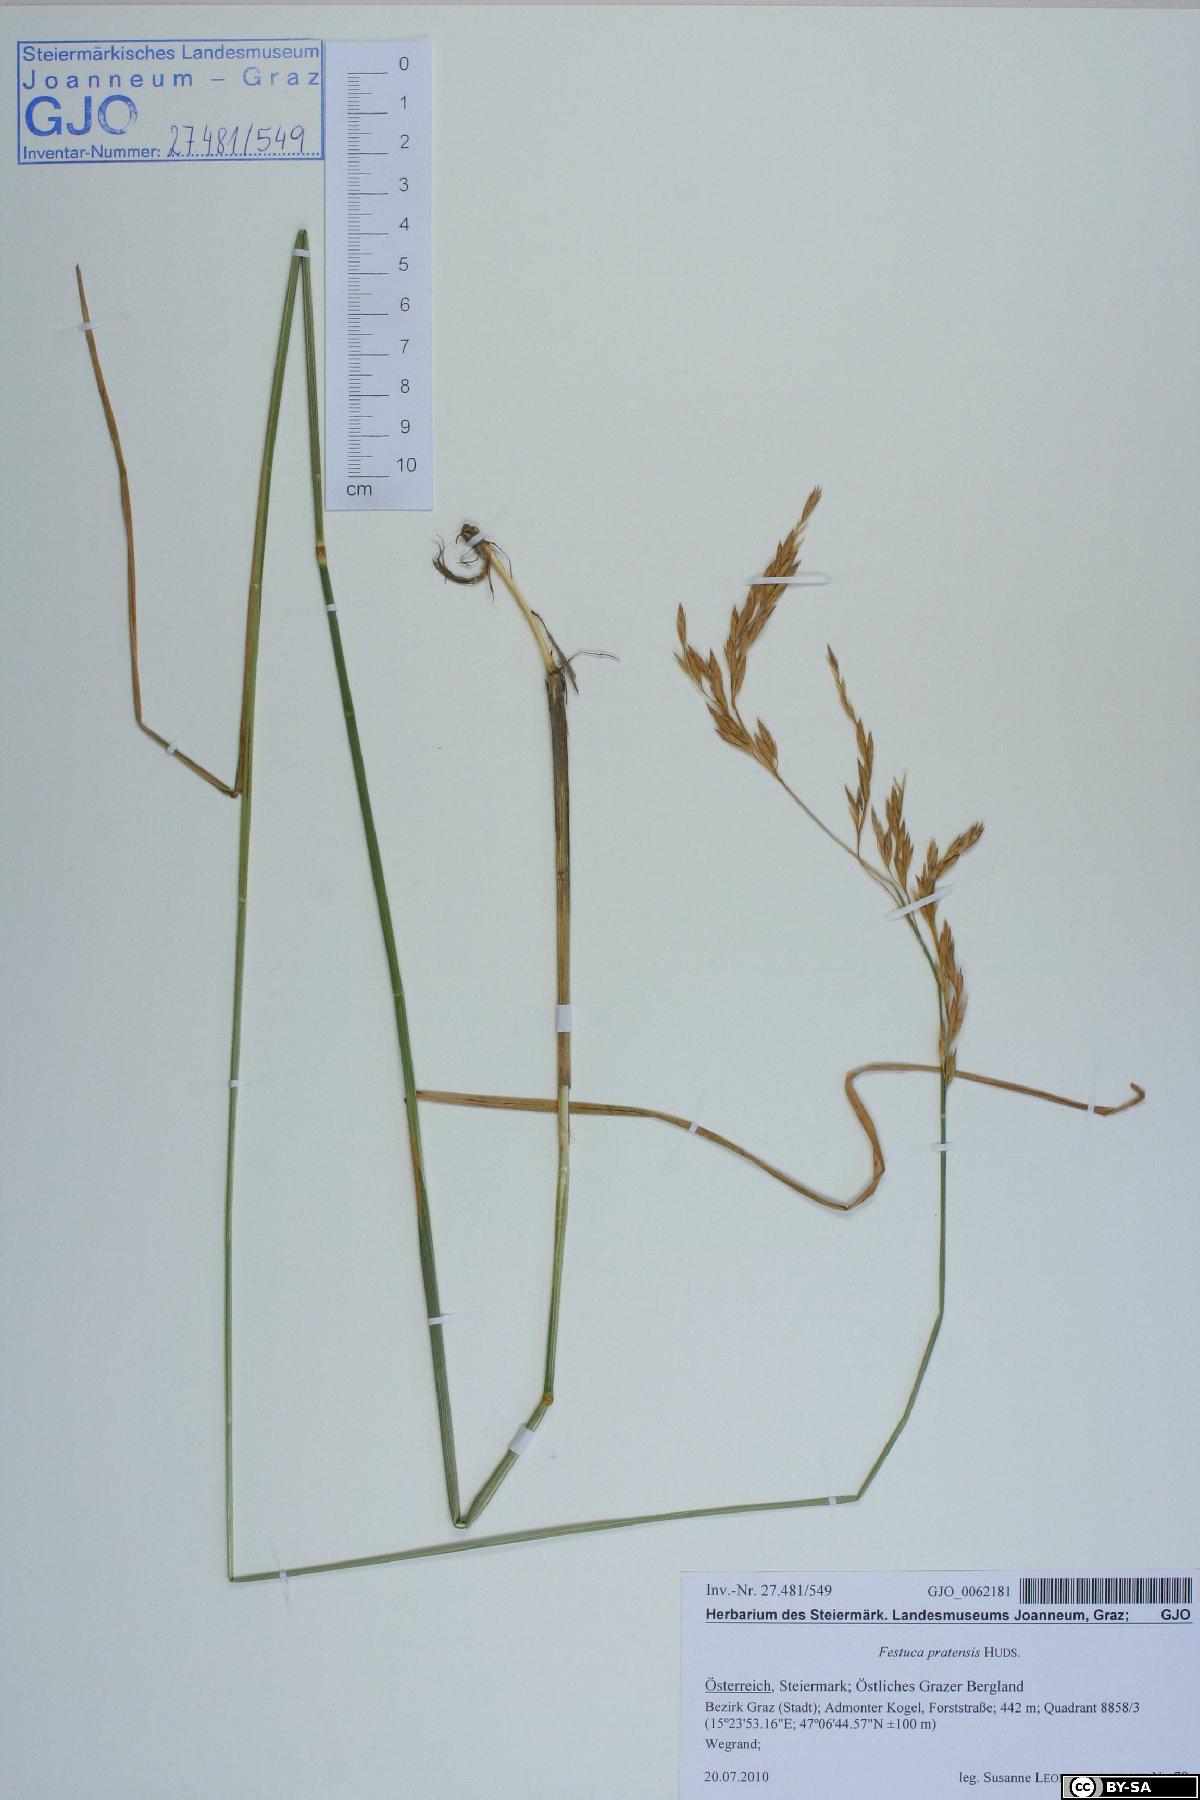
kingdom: Plantae
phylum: Tracheophyta
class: Liliopsida
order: Poales
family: Poaceae
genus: Lolium
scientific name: Lolium pratense
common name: Dover grass
